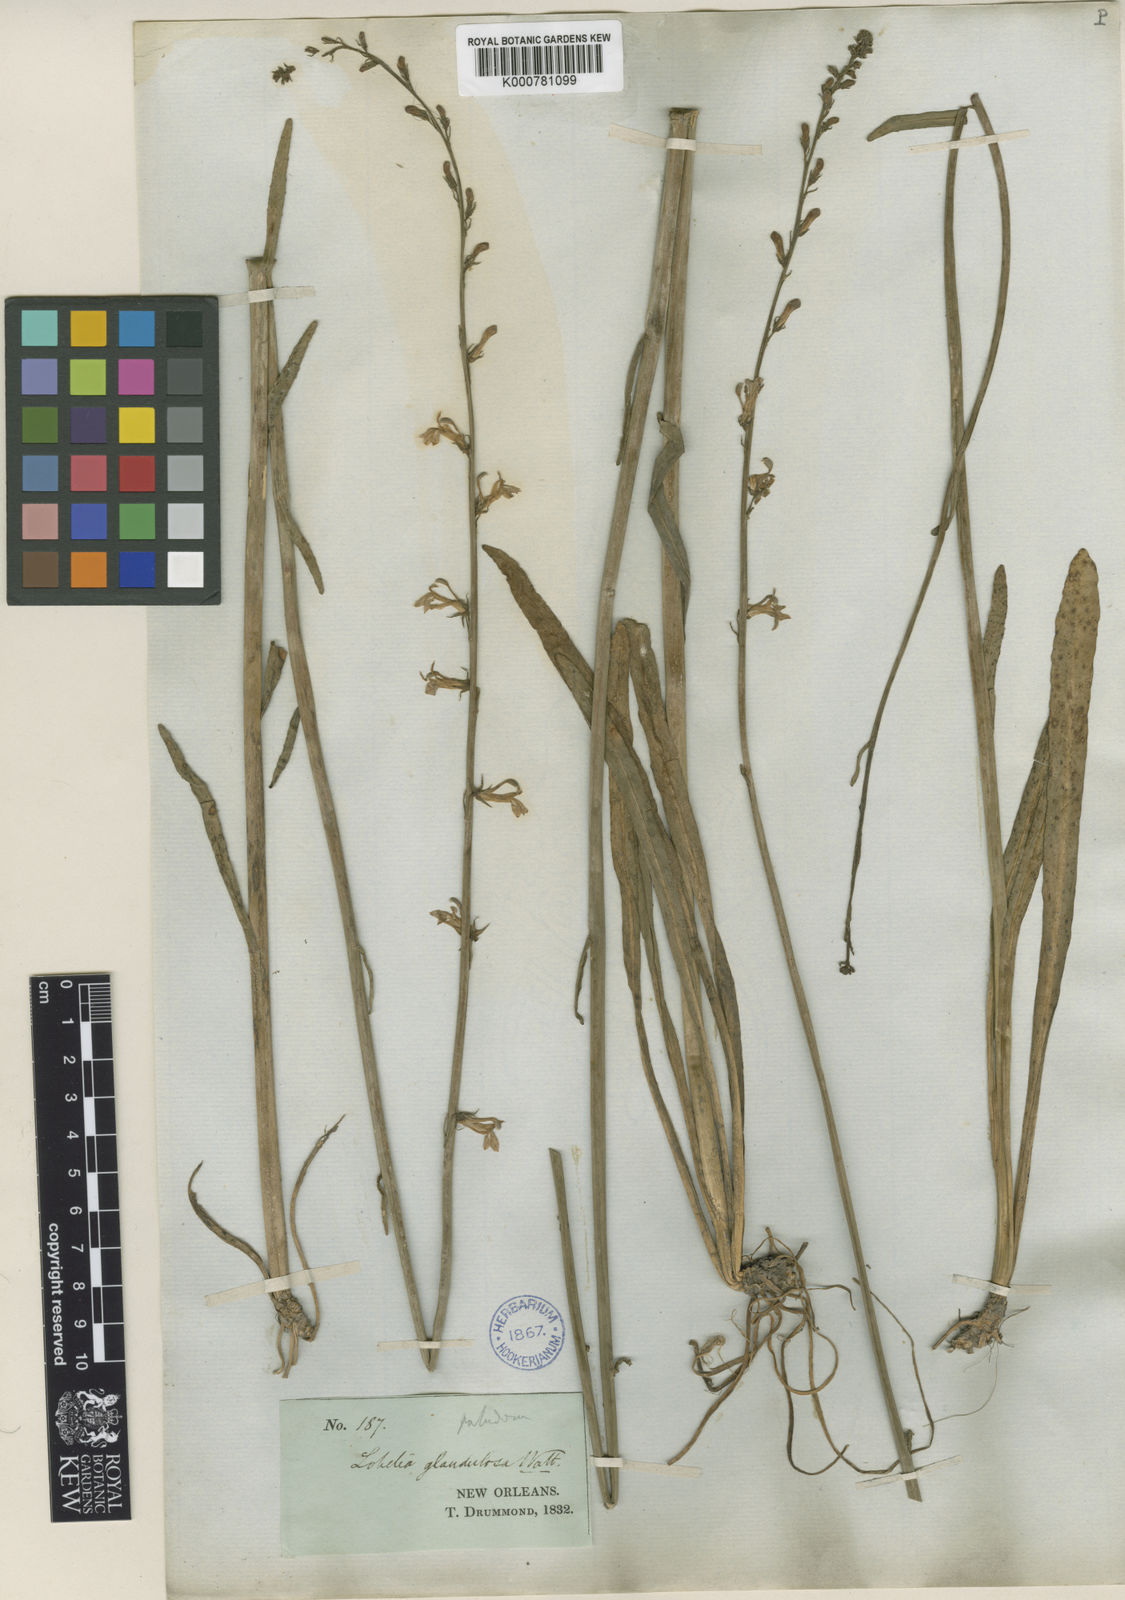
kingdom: Plantae
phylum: Tracheophyta
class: Magnoliopsida
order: Asterales
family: Campanulaceae
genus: Lobelia
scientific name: Lobelia paludosa
